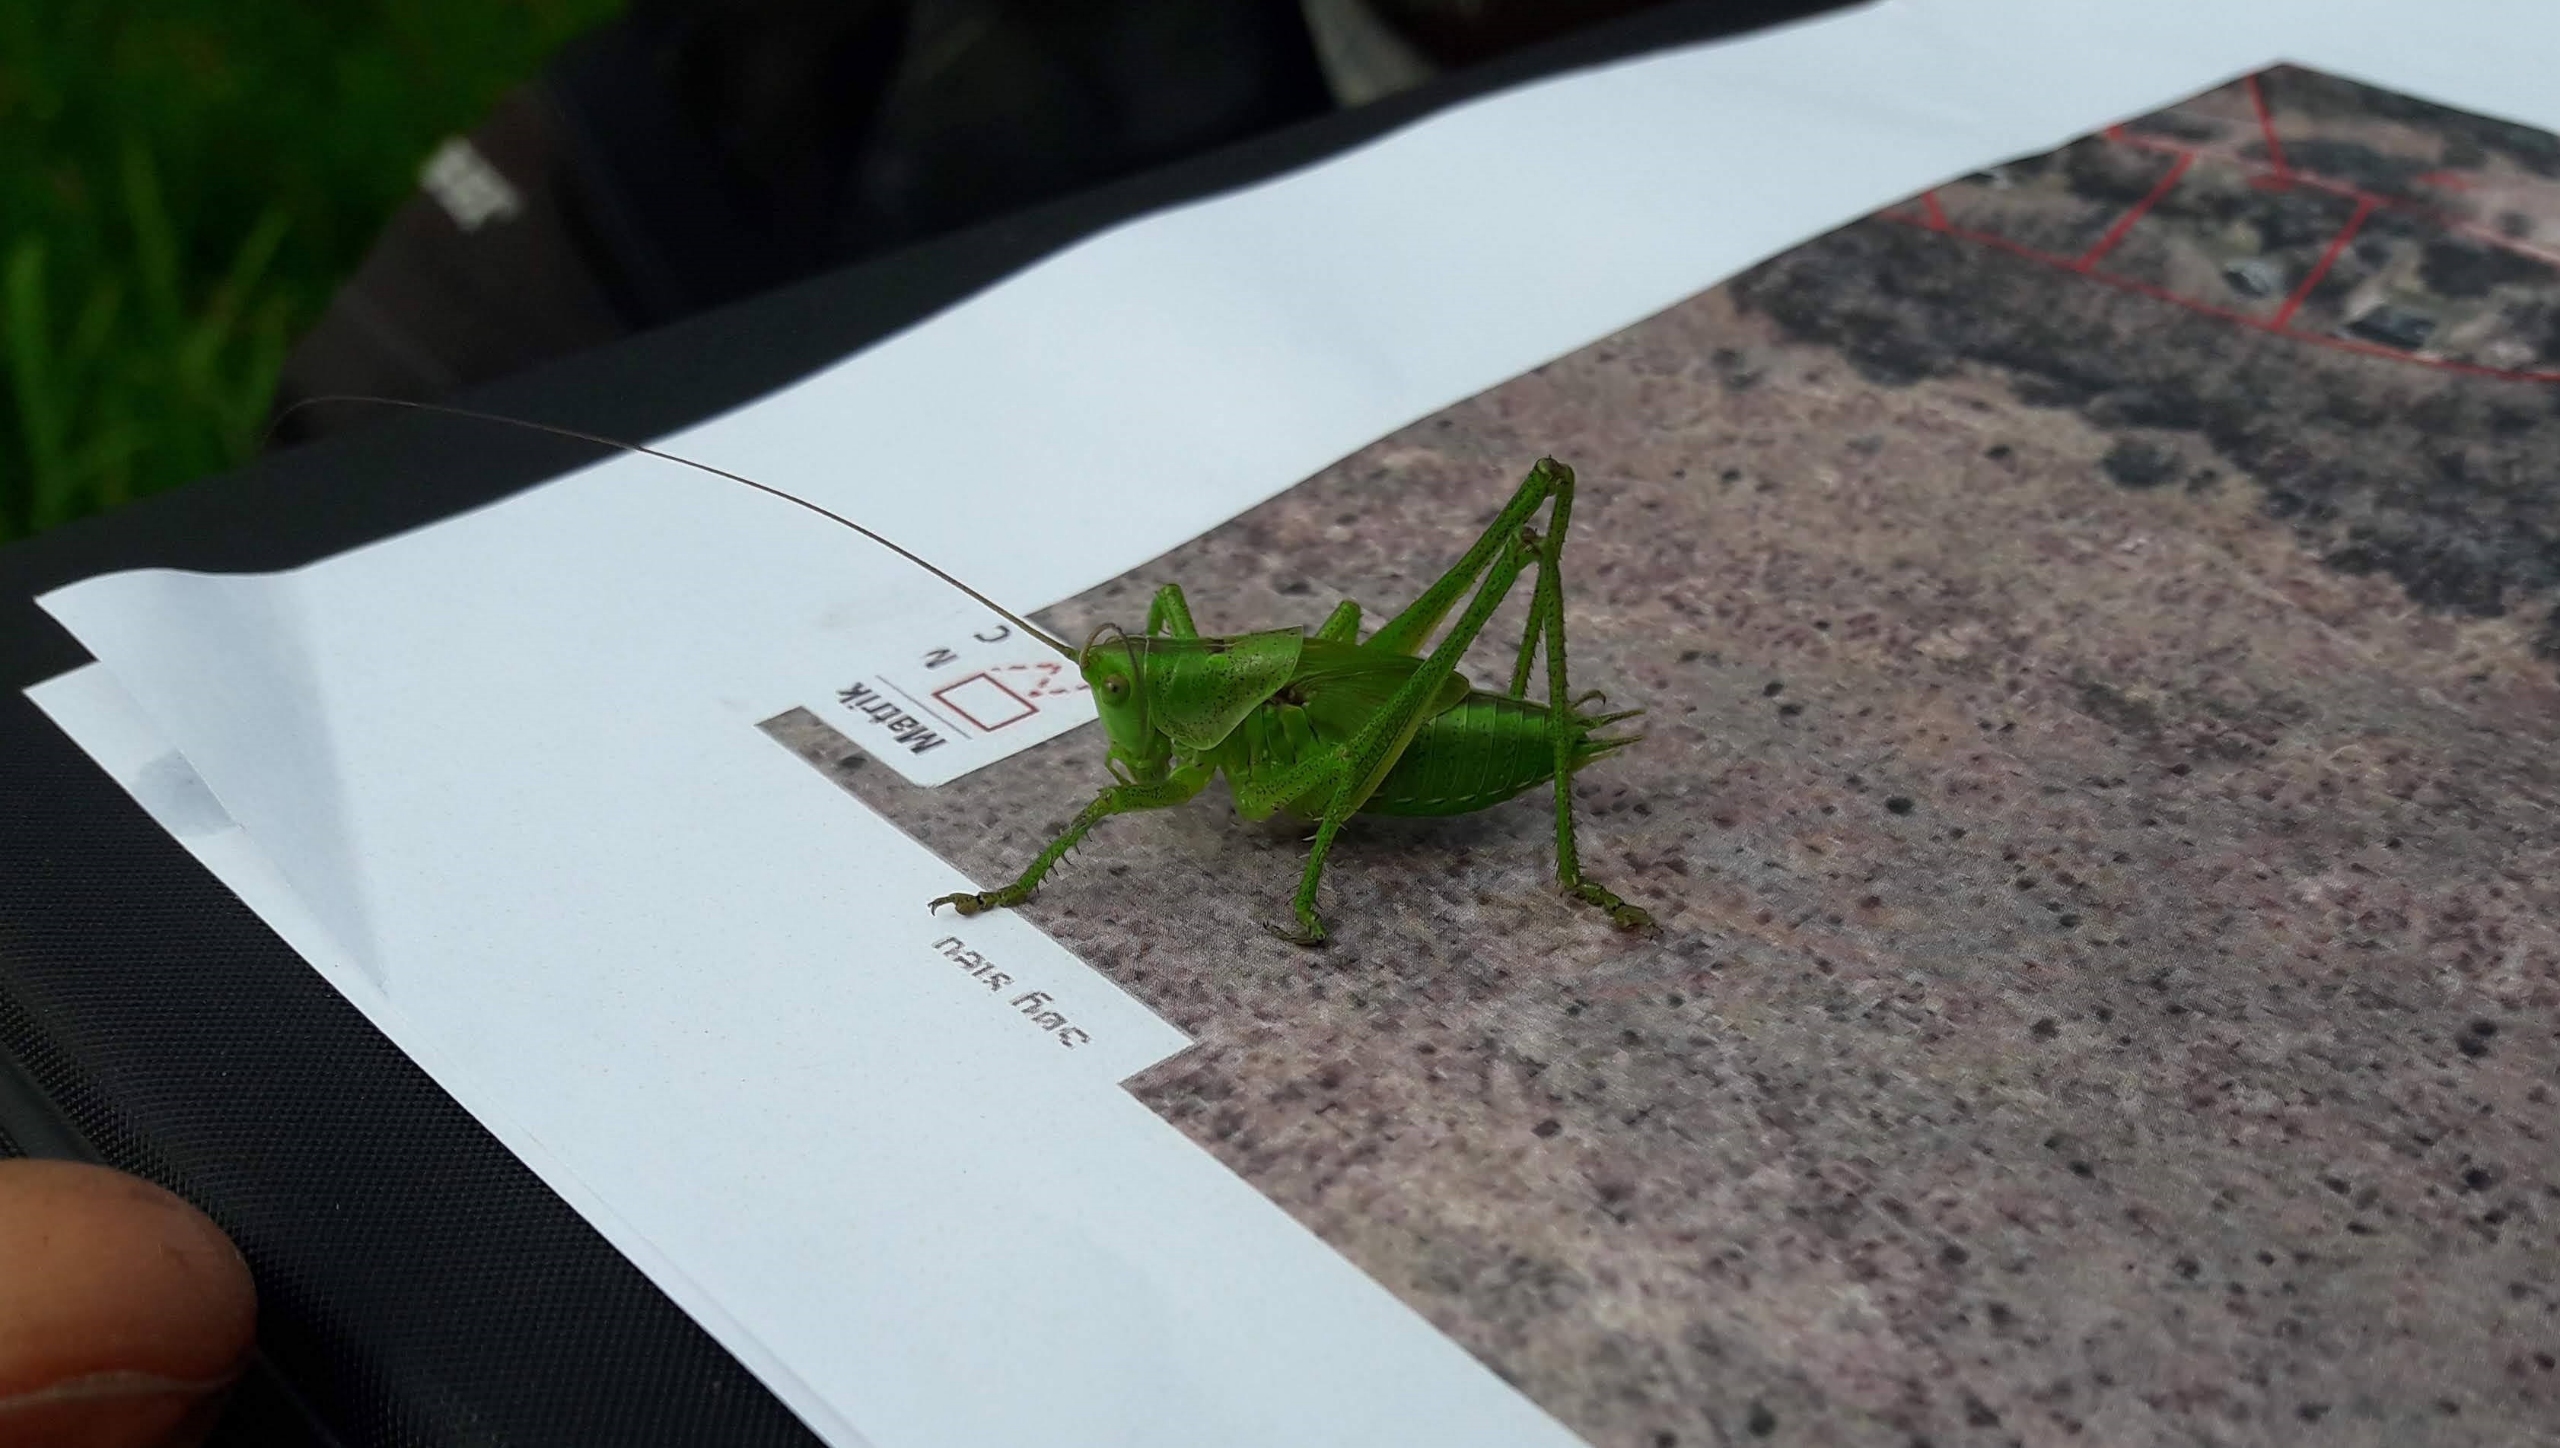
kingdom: Animalia
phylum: Arthropoda
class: Insecta
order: Orthoptera
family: Tettigoniidae
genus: Tettigonia
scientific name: Tettigonia viridissima
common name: Stor grøn løvgræshoppe
